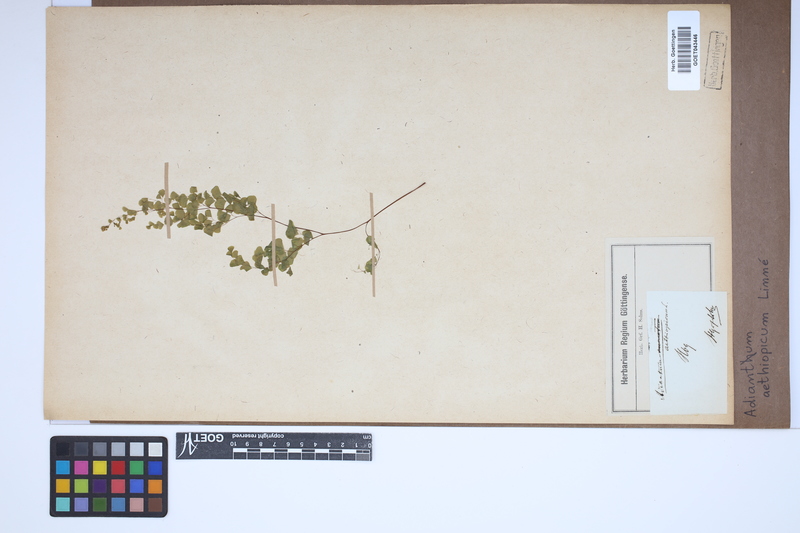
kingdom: Plantae
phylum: Tracheophyta
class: Polypodiopsida
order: Polypodiales
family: Pteridaceae
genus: Adiantum
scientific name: Adiantum aethiopicum
